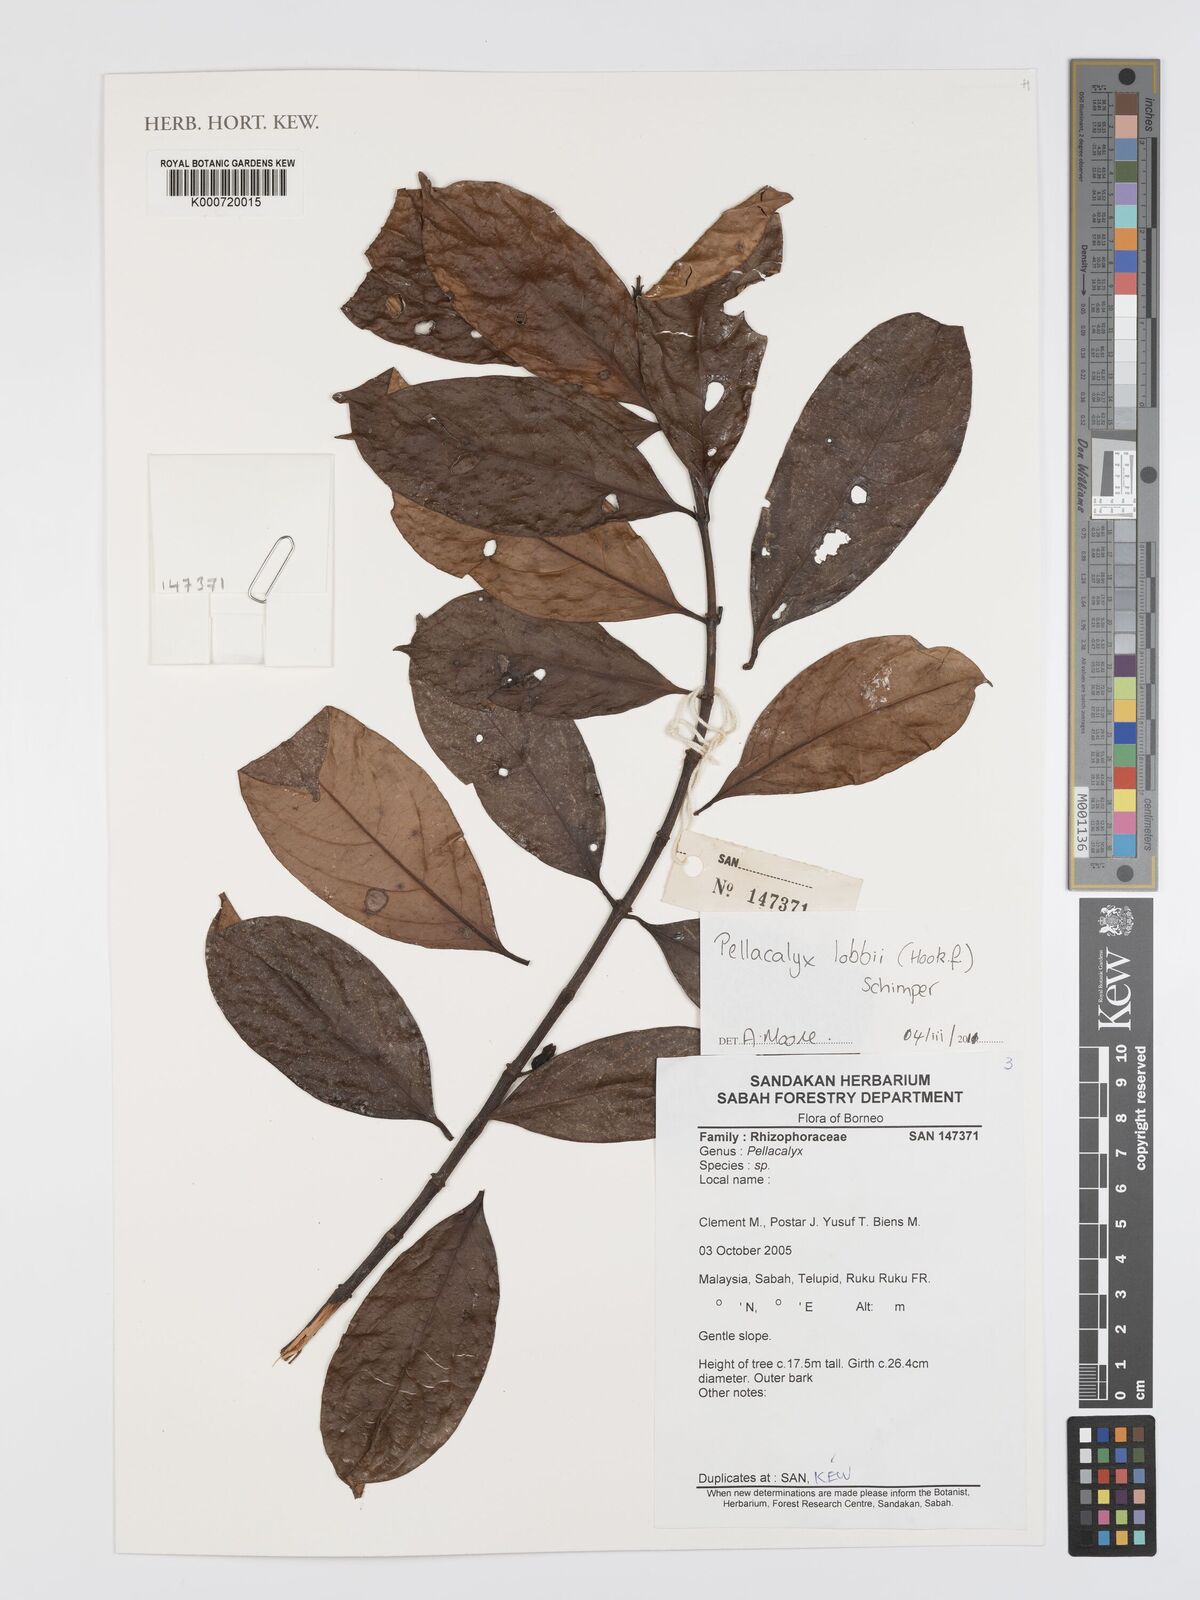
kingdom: Plantae
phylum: Tracheophyta
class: Magnoliopsida
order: Malpighiales
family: Rhizophoraceae
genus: Pellacalyx
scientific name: Pellacalyx
